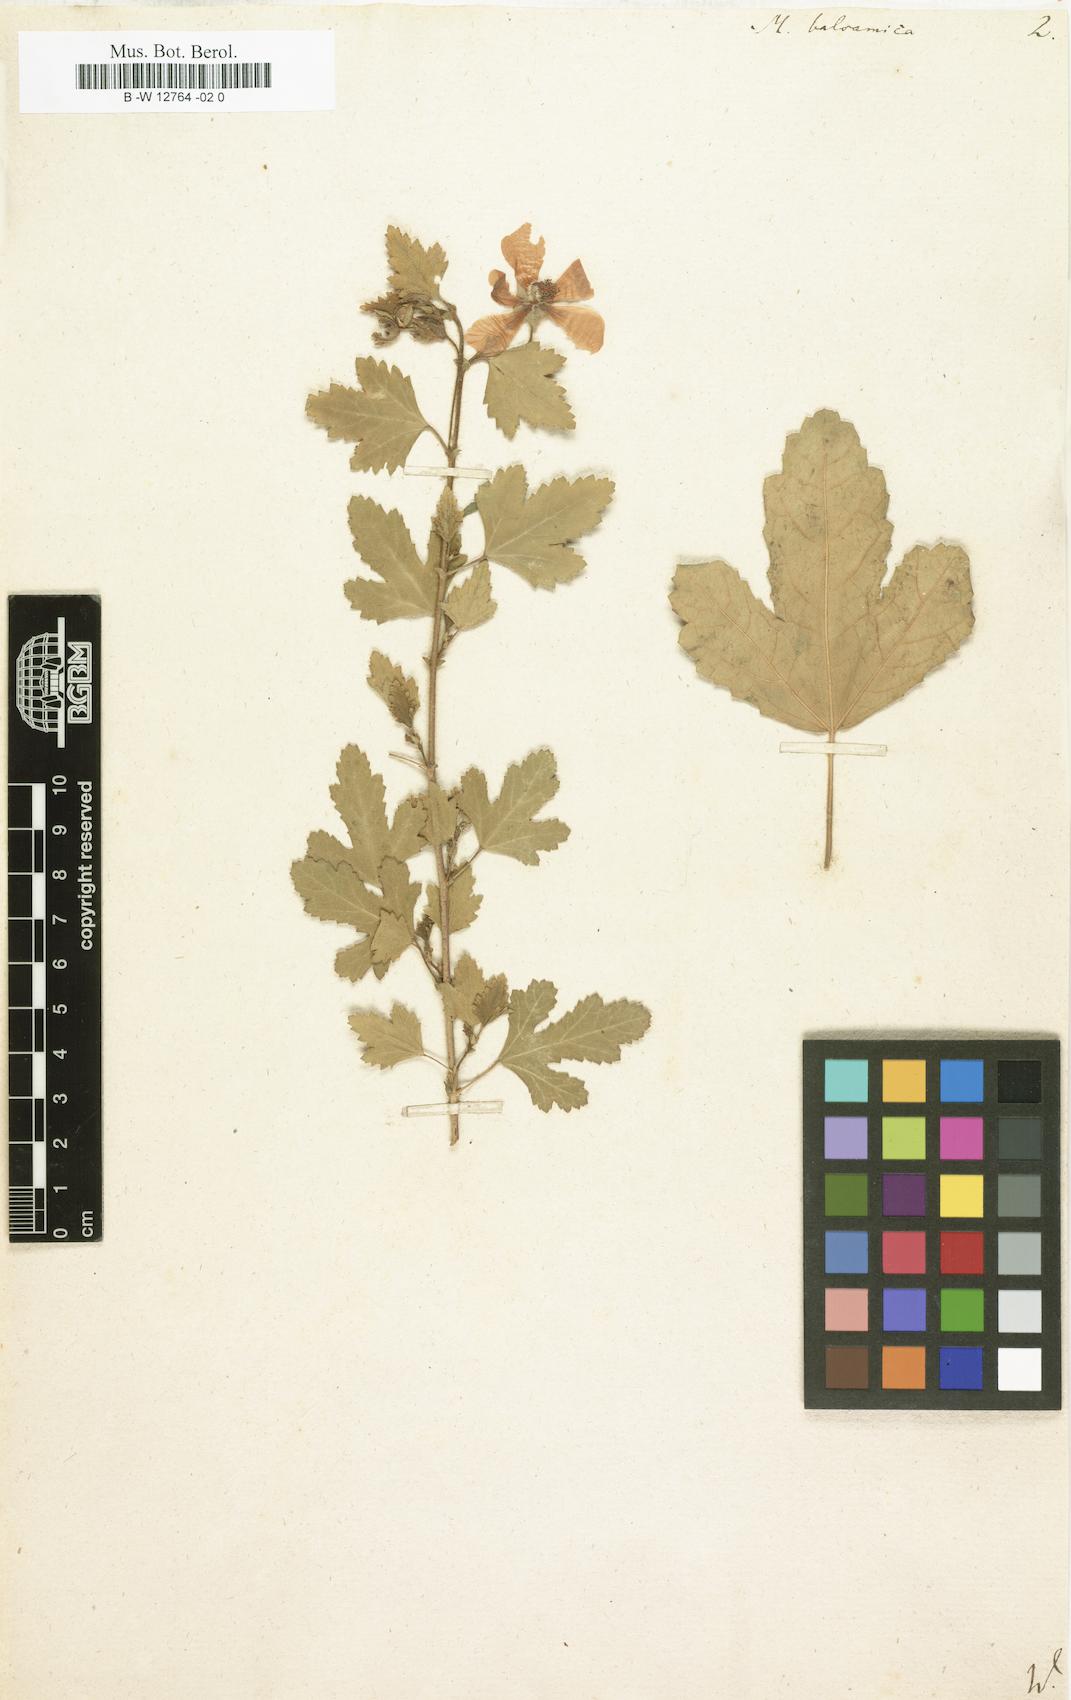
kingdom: Plantae
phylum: Tracheophyta
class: Magnoliopsida
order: Malvales
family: Malvaceae
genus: Anisodontea
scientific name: Anisodontea capensis
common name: Cape african-queen
